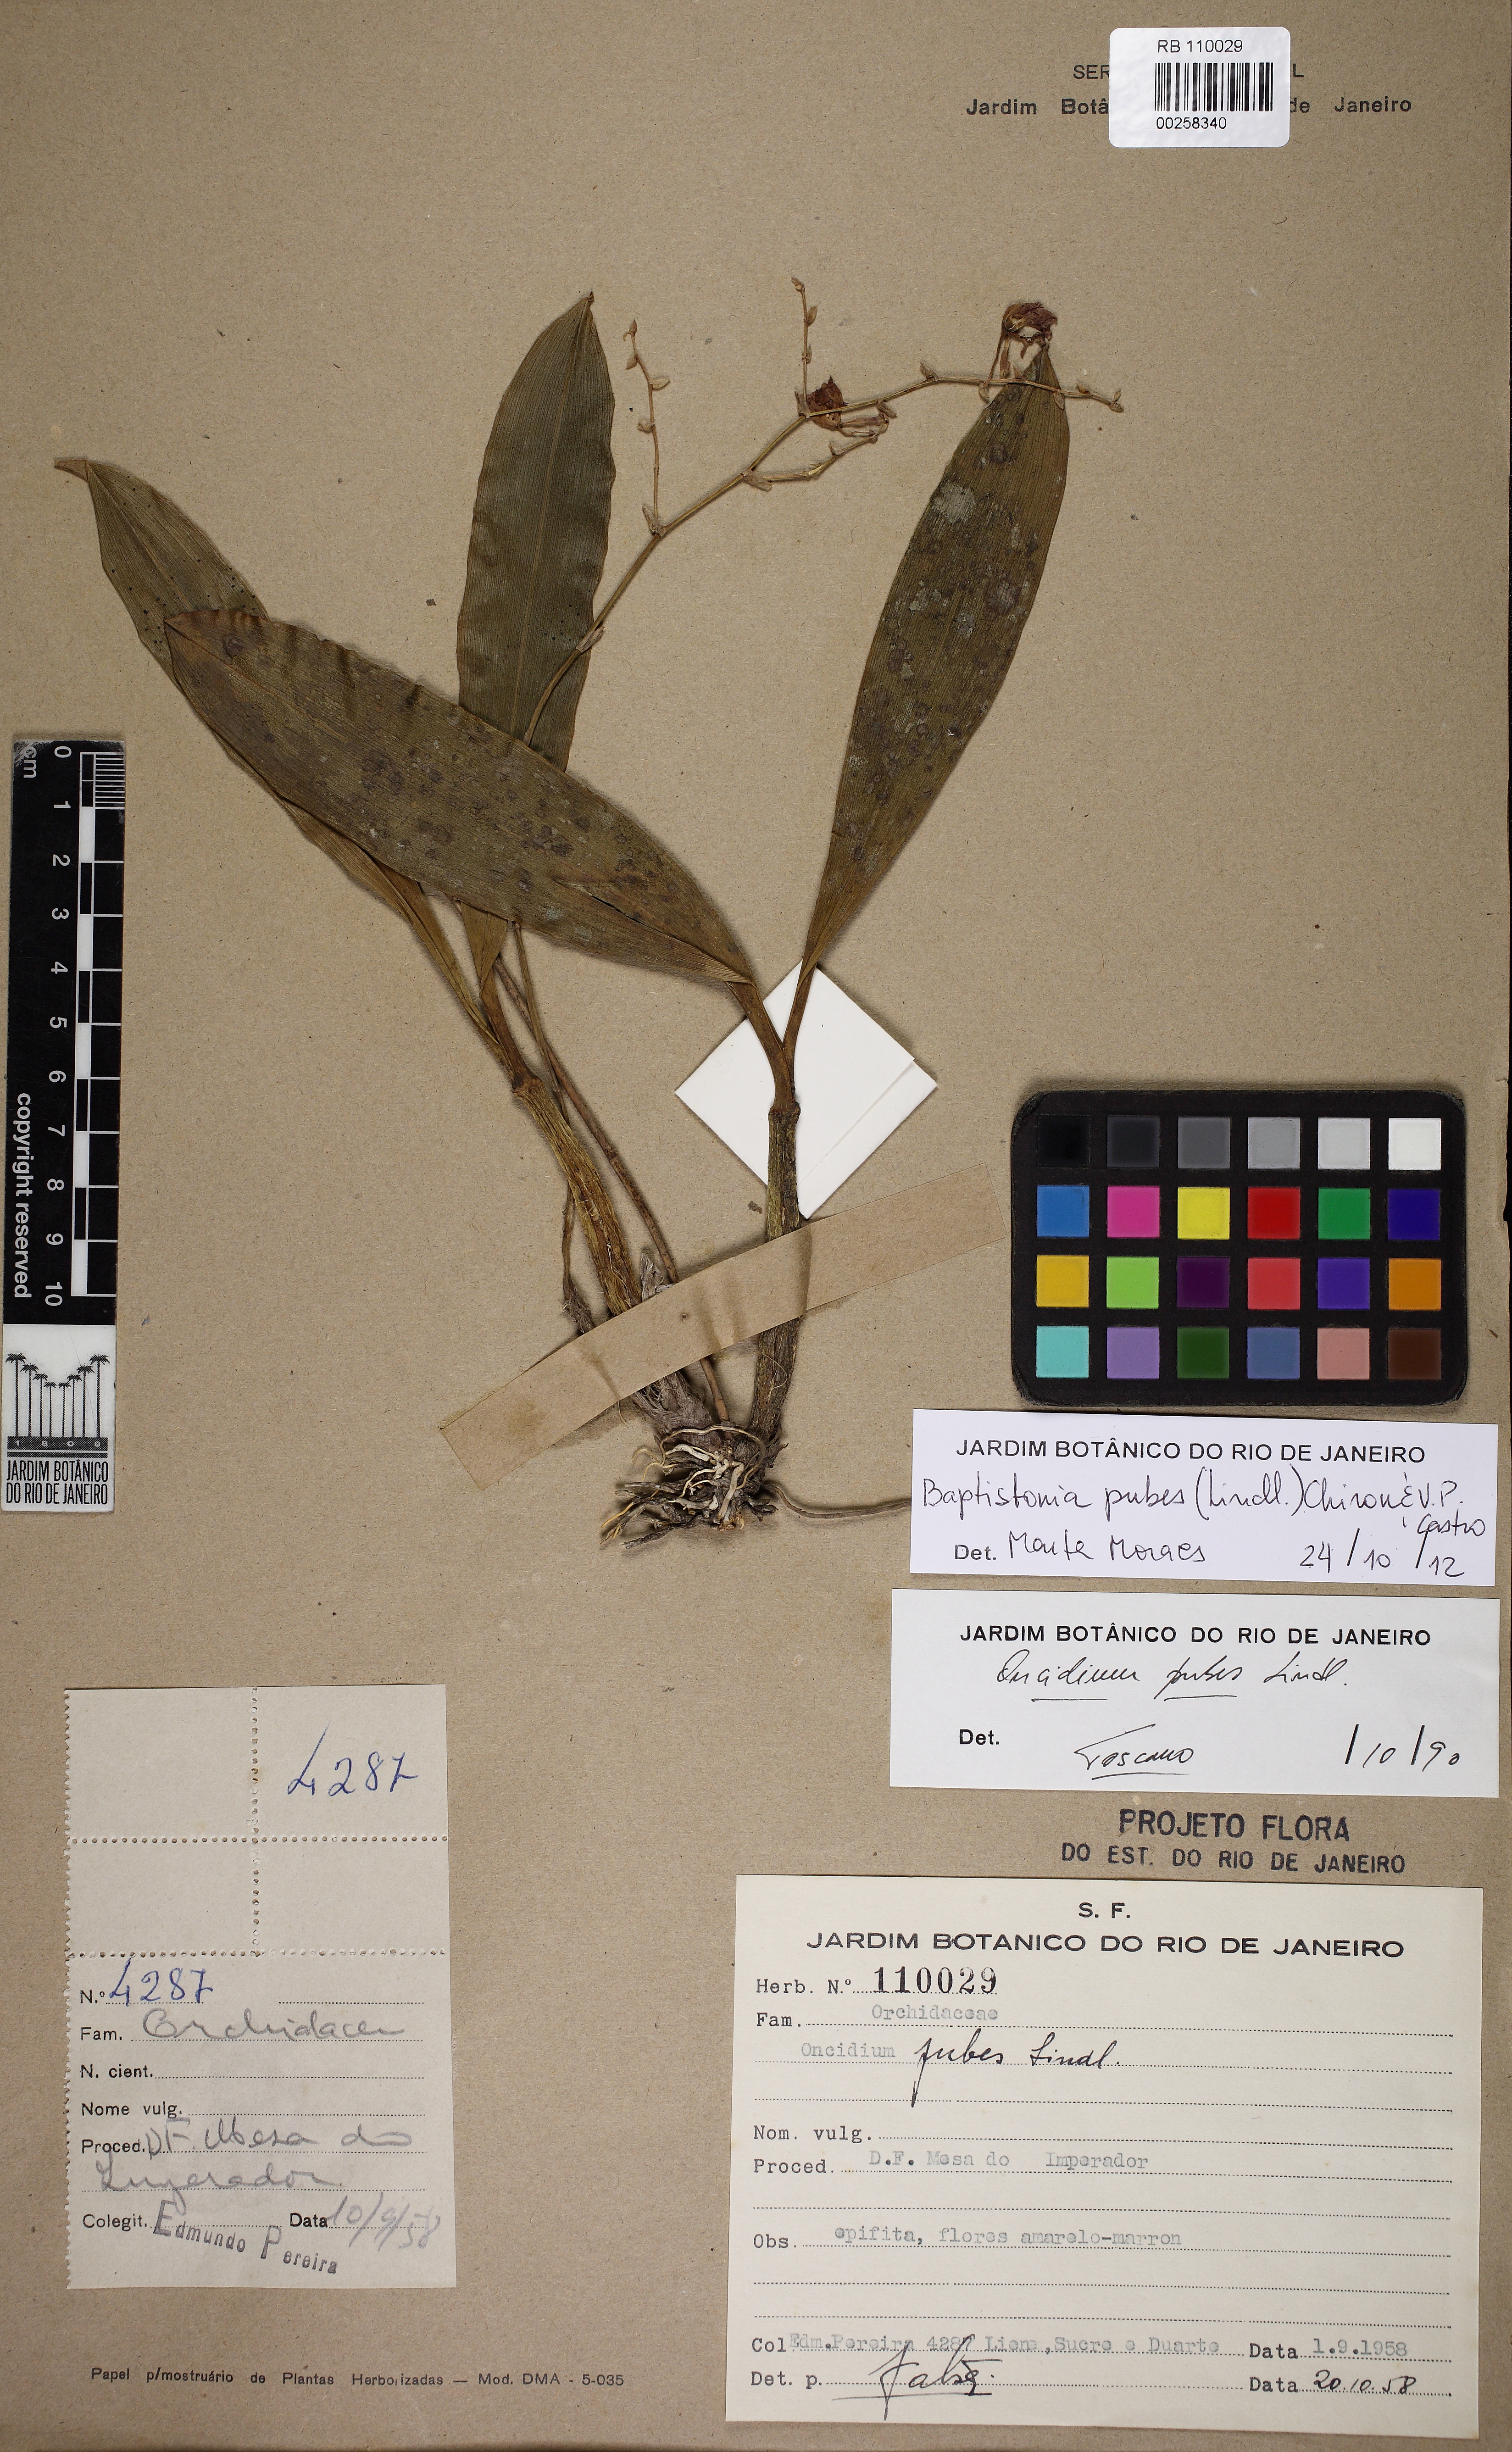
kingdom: Plantae
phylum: Tracheophyta
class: Liliopsida
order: Asparagales
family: Orchidaceae
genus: Gomesa
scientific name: Gomesa pubes
